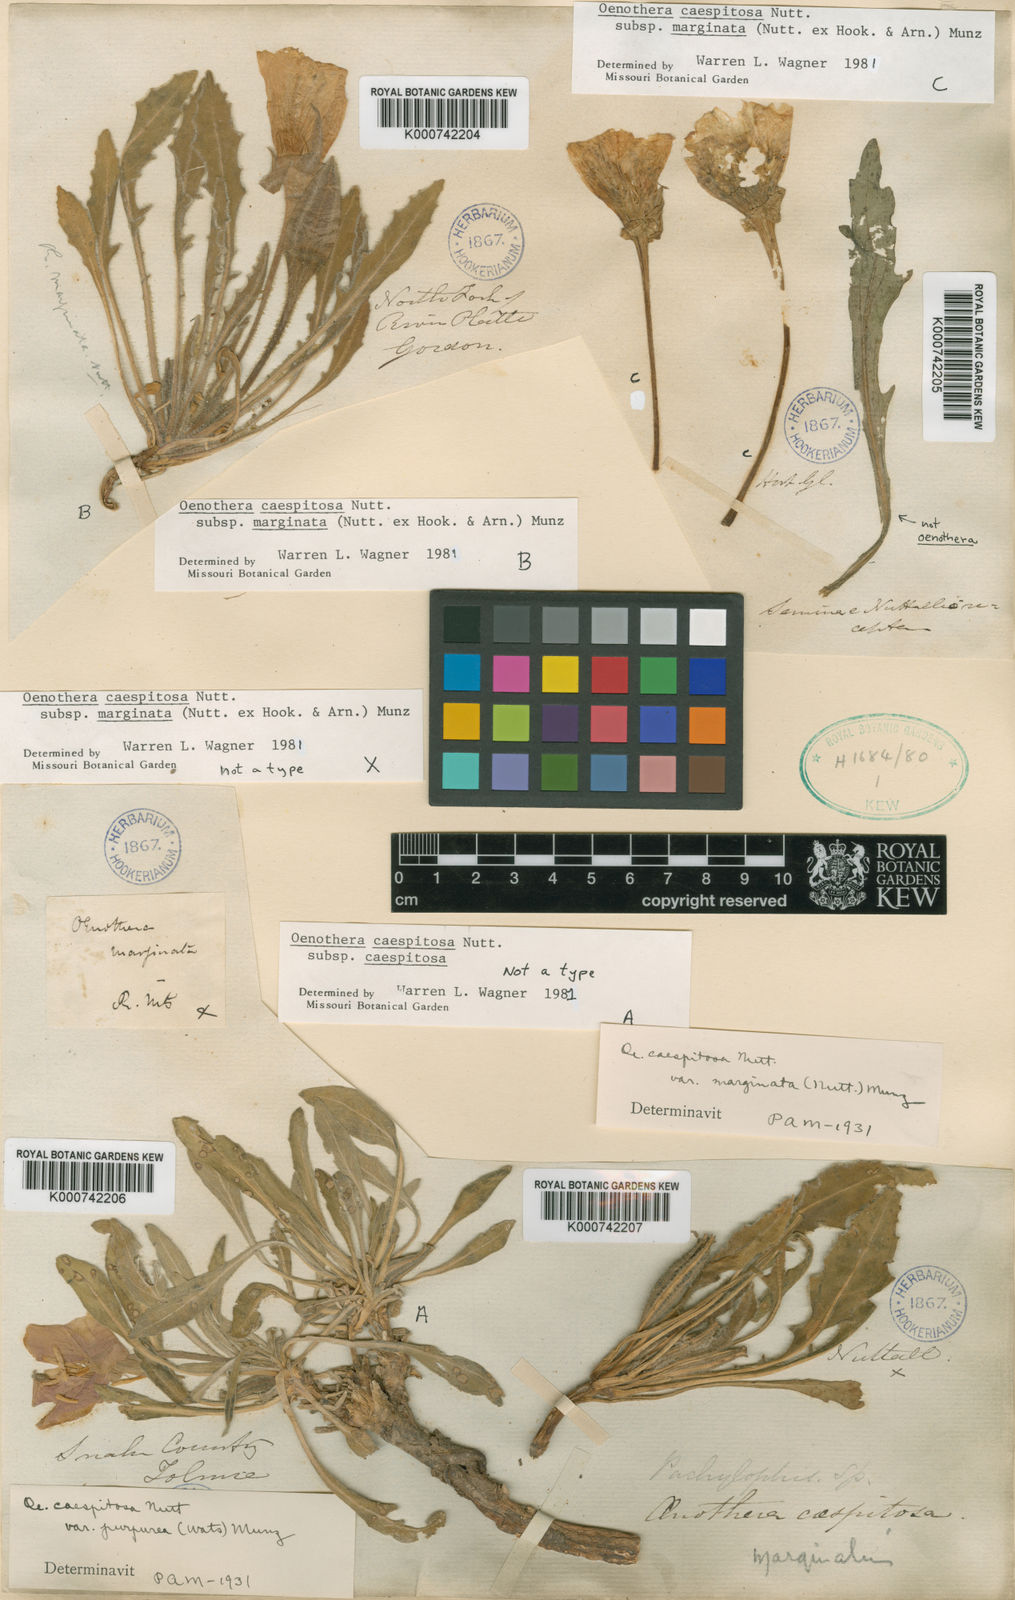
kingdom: Plantae
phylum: Tracheophyta
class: Magnoliopsida
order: Myrtales
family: Onagraceae
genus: Oenothera
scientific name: Oenothera
